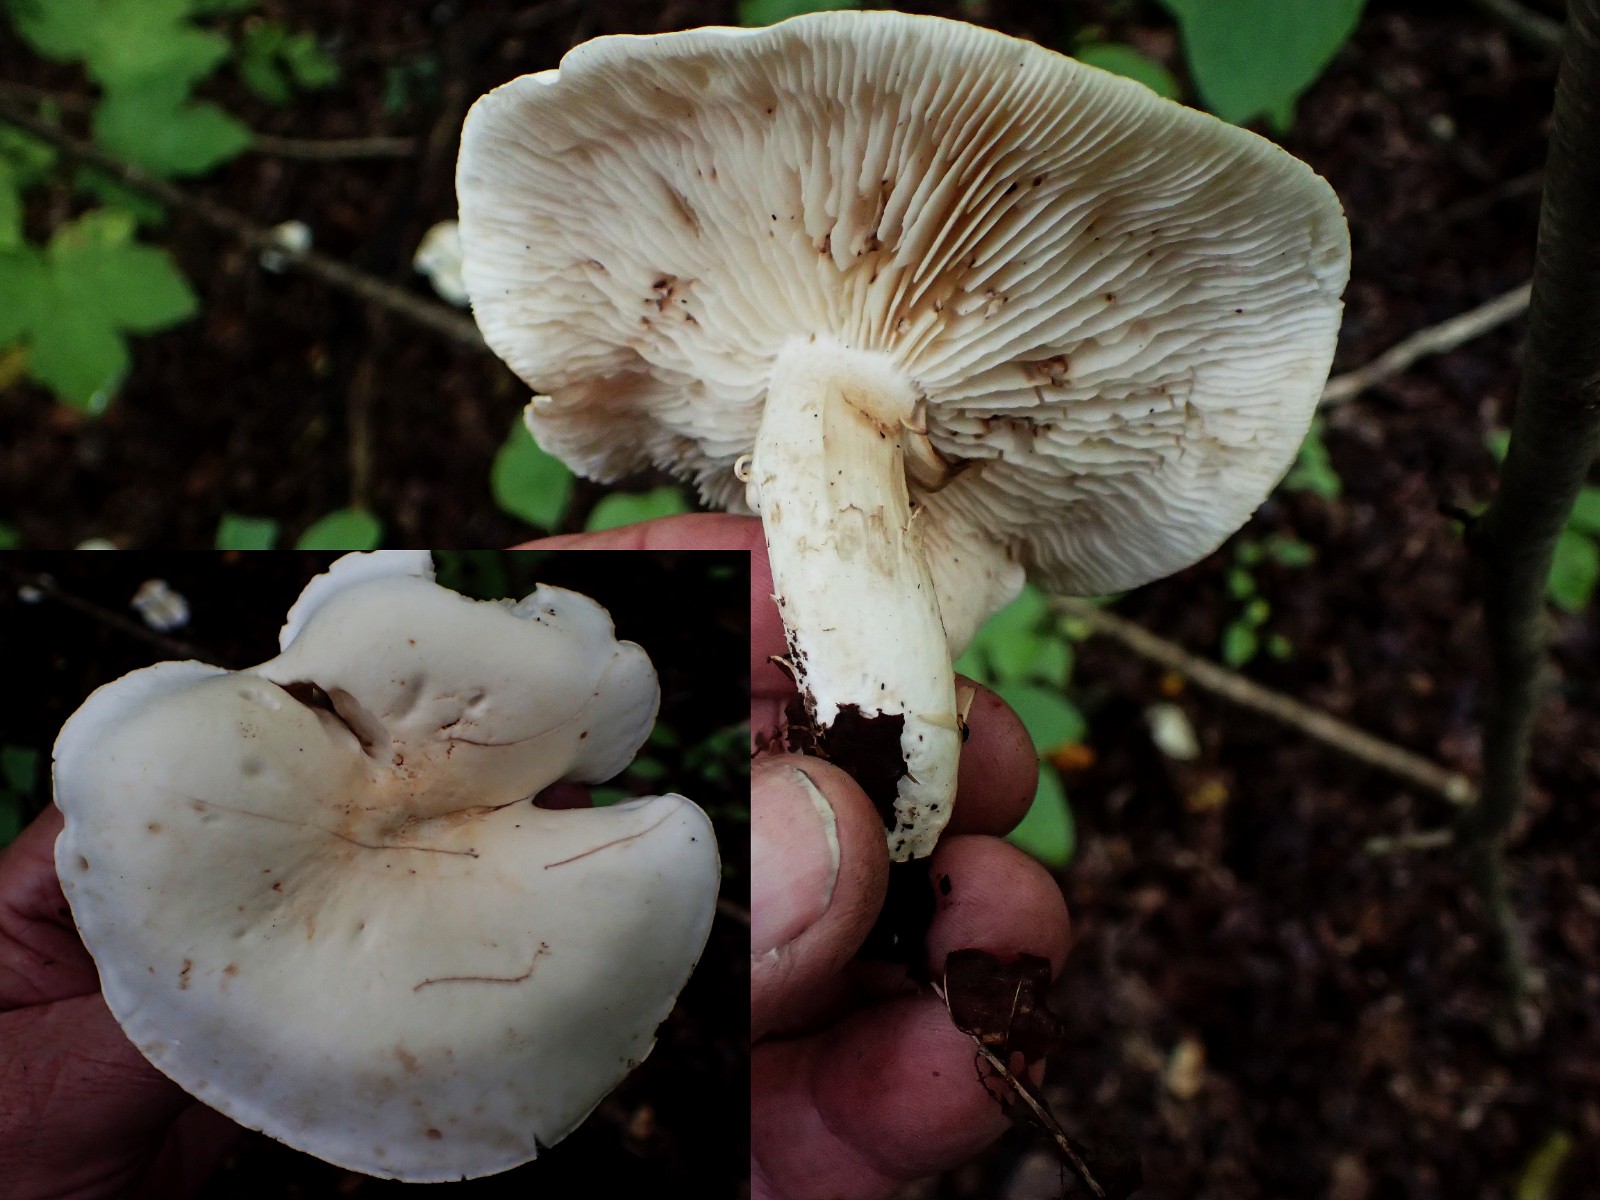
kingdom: Fungi
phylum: Basidiomycota
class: Agaricomycetes
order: Agaricales
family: Tricholomataceae
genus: Tricholoma
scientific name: Tricholoma lascivum
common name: stinkende ridderhat
